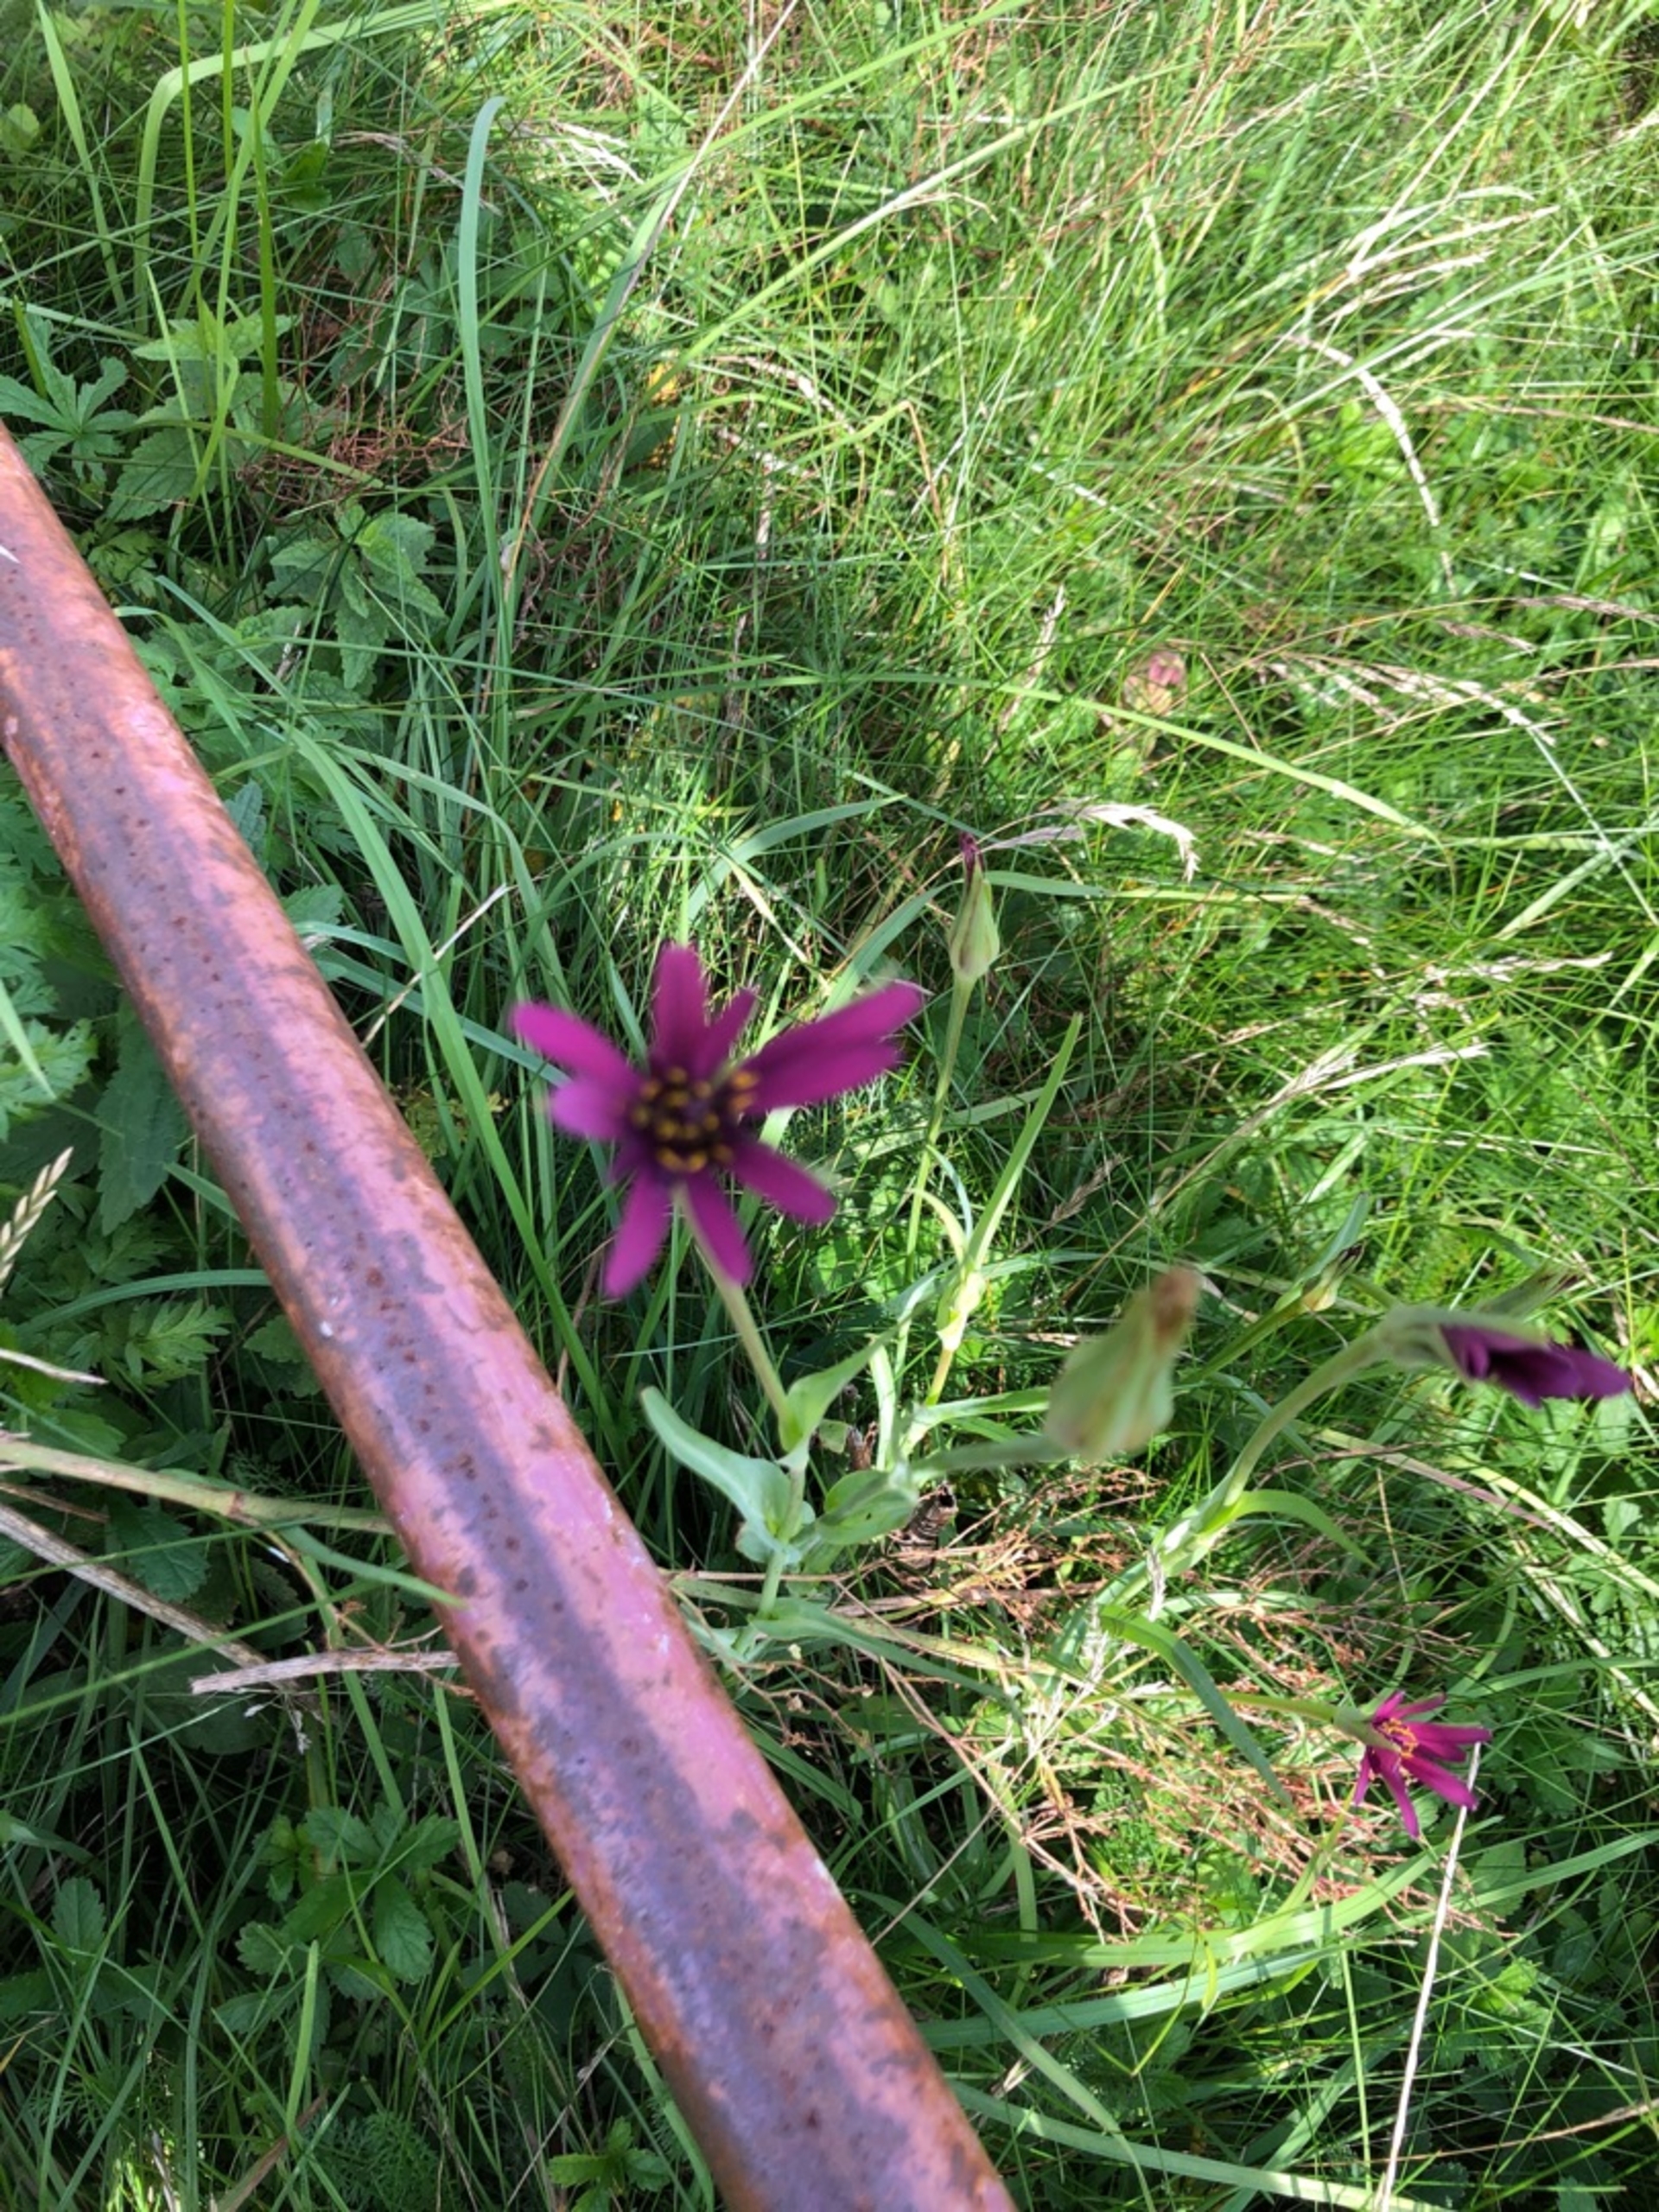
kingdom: Plantae
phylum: Tracheophyta
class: Magnoliopsida
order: Asterales
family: Asteraceae
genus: Tragopogon
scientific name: Tragopogon porrifolius
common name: Havrerod
